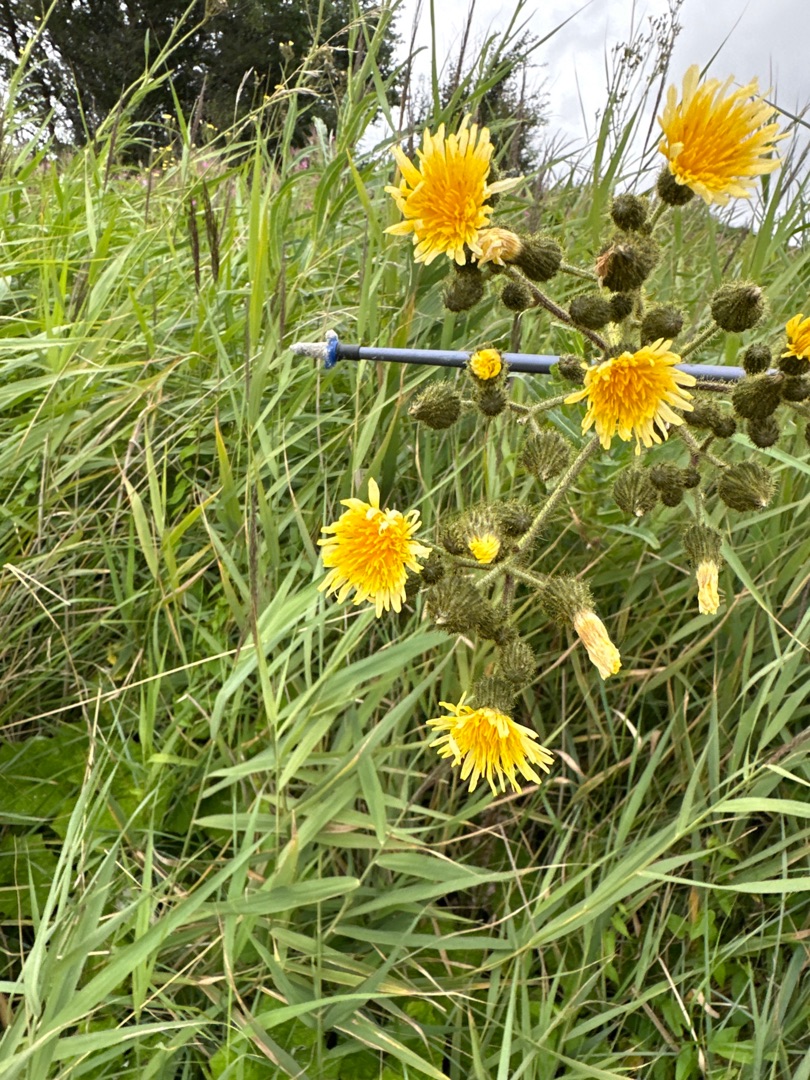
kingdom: Plantae
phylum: Tracheophyta
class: Magnoliopsida
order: Asterales
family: Asteraceae
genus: Sonchus
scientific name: Sonchus arvensis
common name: Ager-svinemælk
